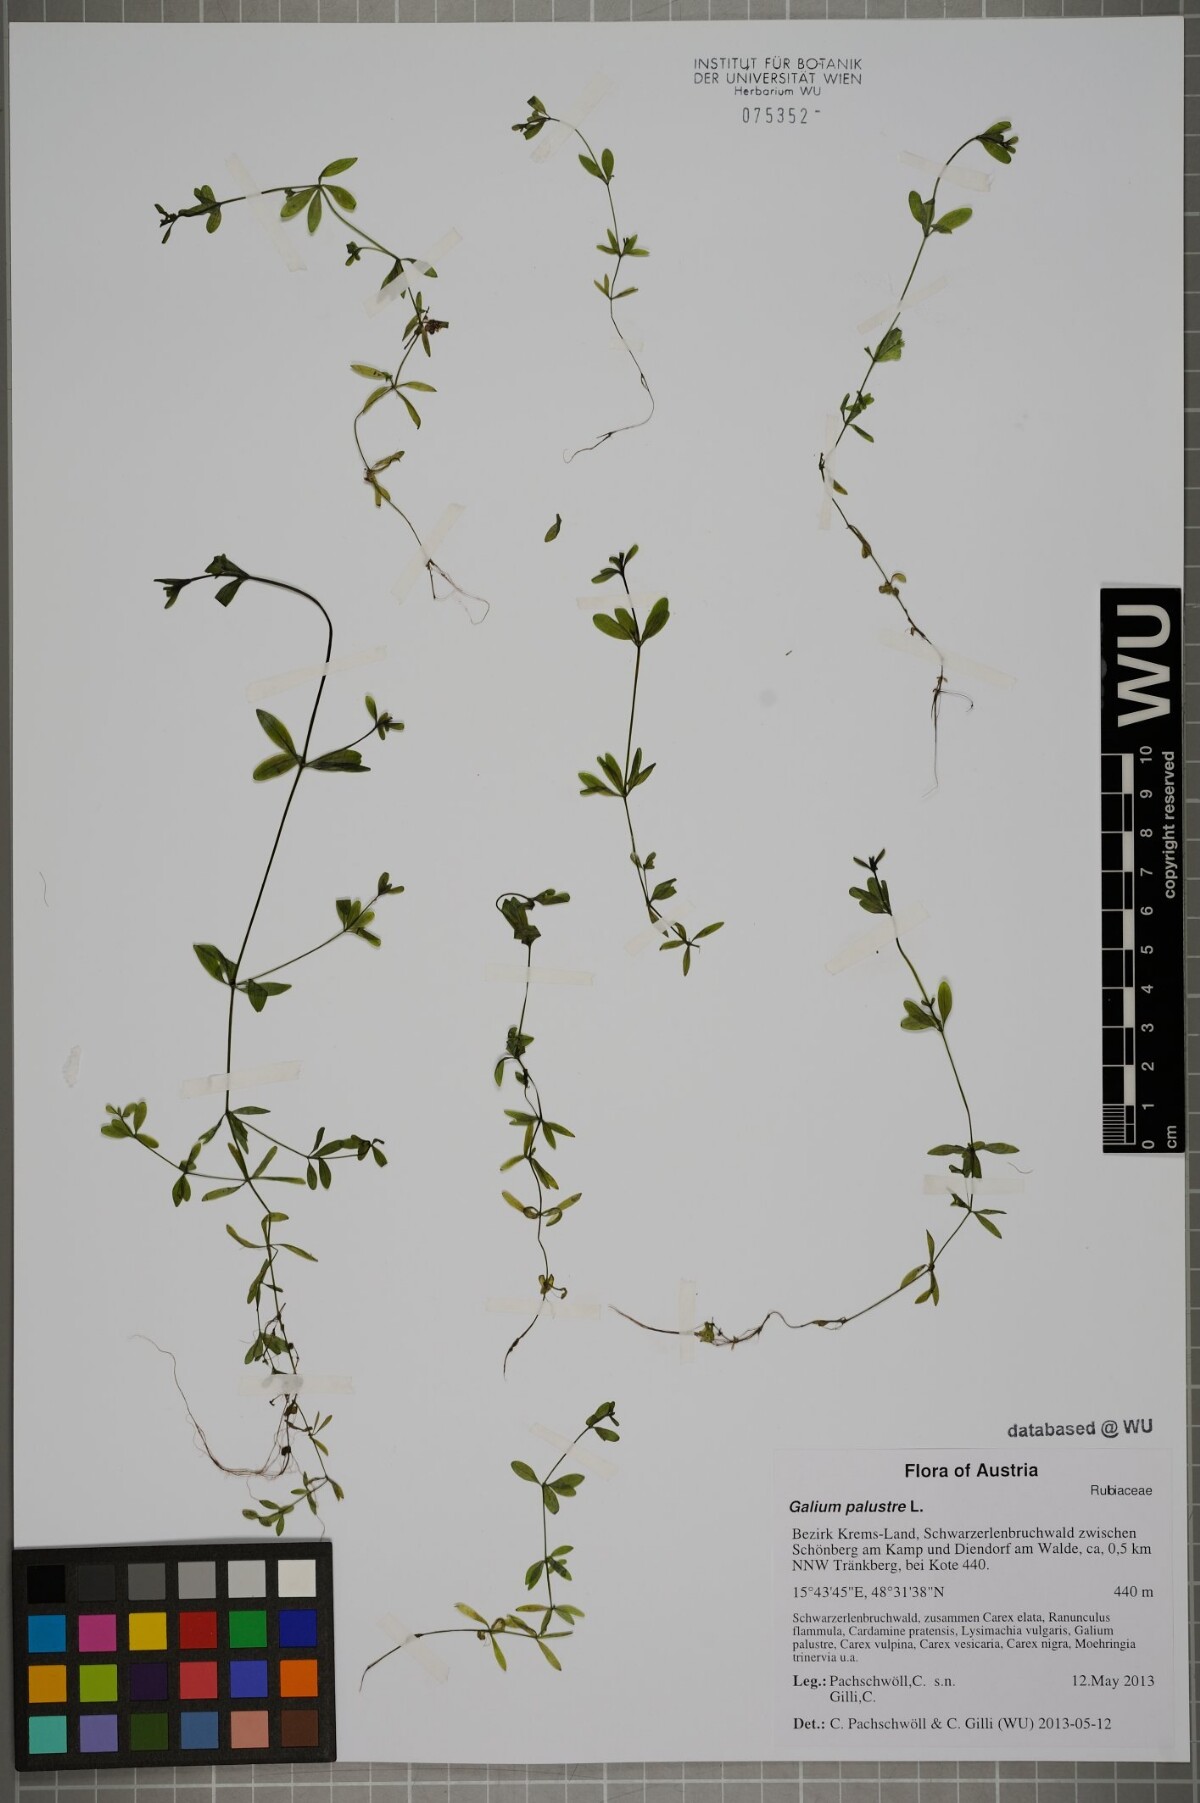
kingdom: Plantae
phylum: Tracheophyta
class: Magnoliopsida
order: Gentianales
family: Rubiaceae
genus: Galium
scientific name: Galium palustre
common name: Common marsh-bedstraw
